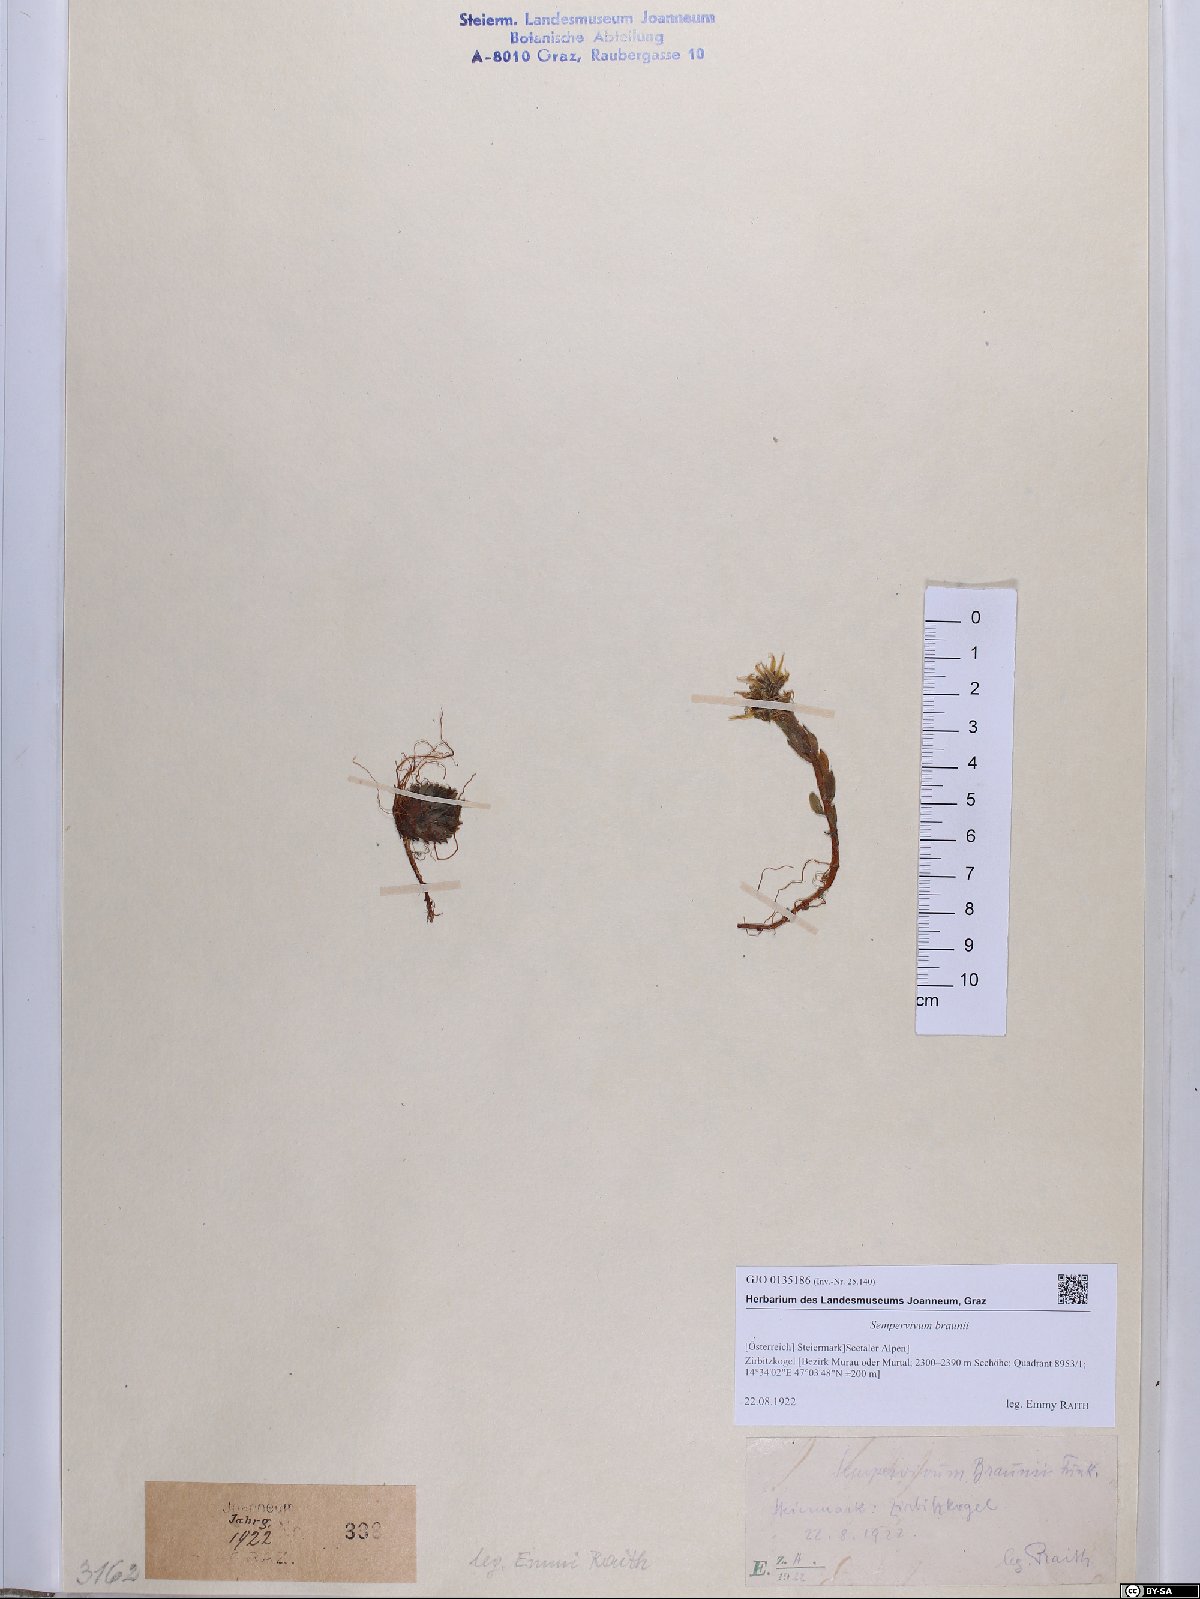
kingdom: Plantae
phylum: Tracheophyta
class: Magnoliopsida
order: Saxifragales
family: Crassulaceae
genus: Sempervivum
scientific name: Sempervivum montanum
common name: Mountain house-leek
